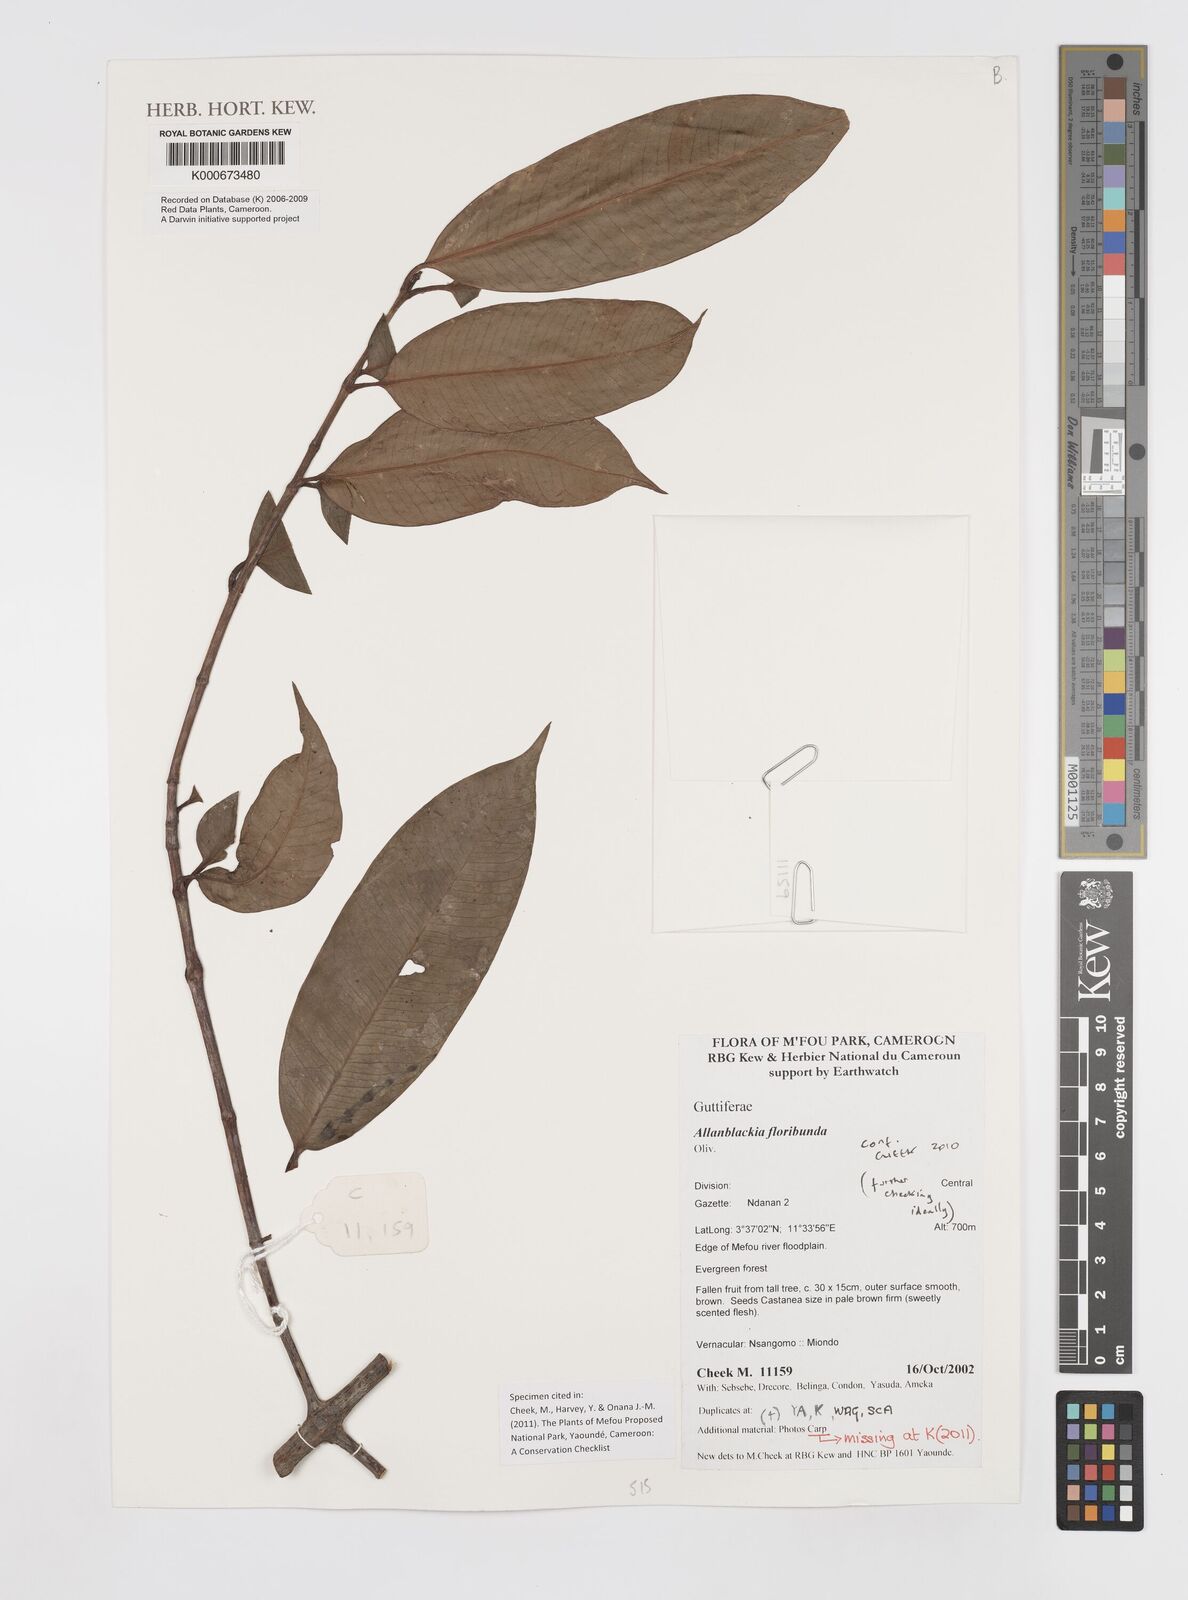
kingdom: Plantae
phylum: Tracheophyta
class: Magnoliopsida
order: Malpighiales
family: Clusiaceae
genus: Allanblackia
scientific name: Allanblackia floribunda
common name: Tallow tree
